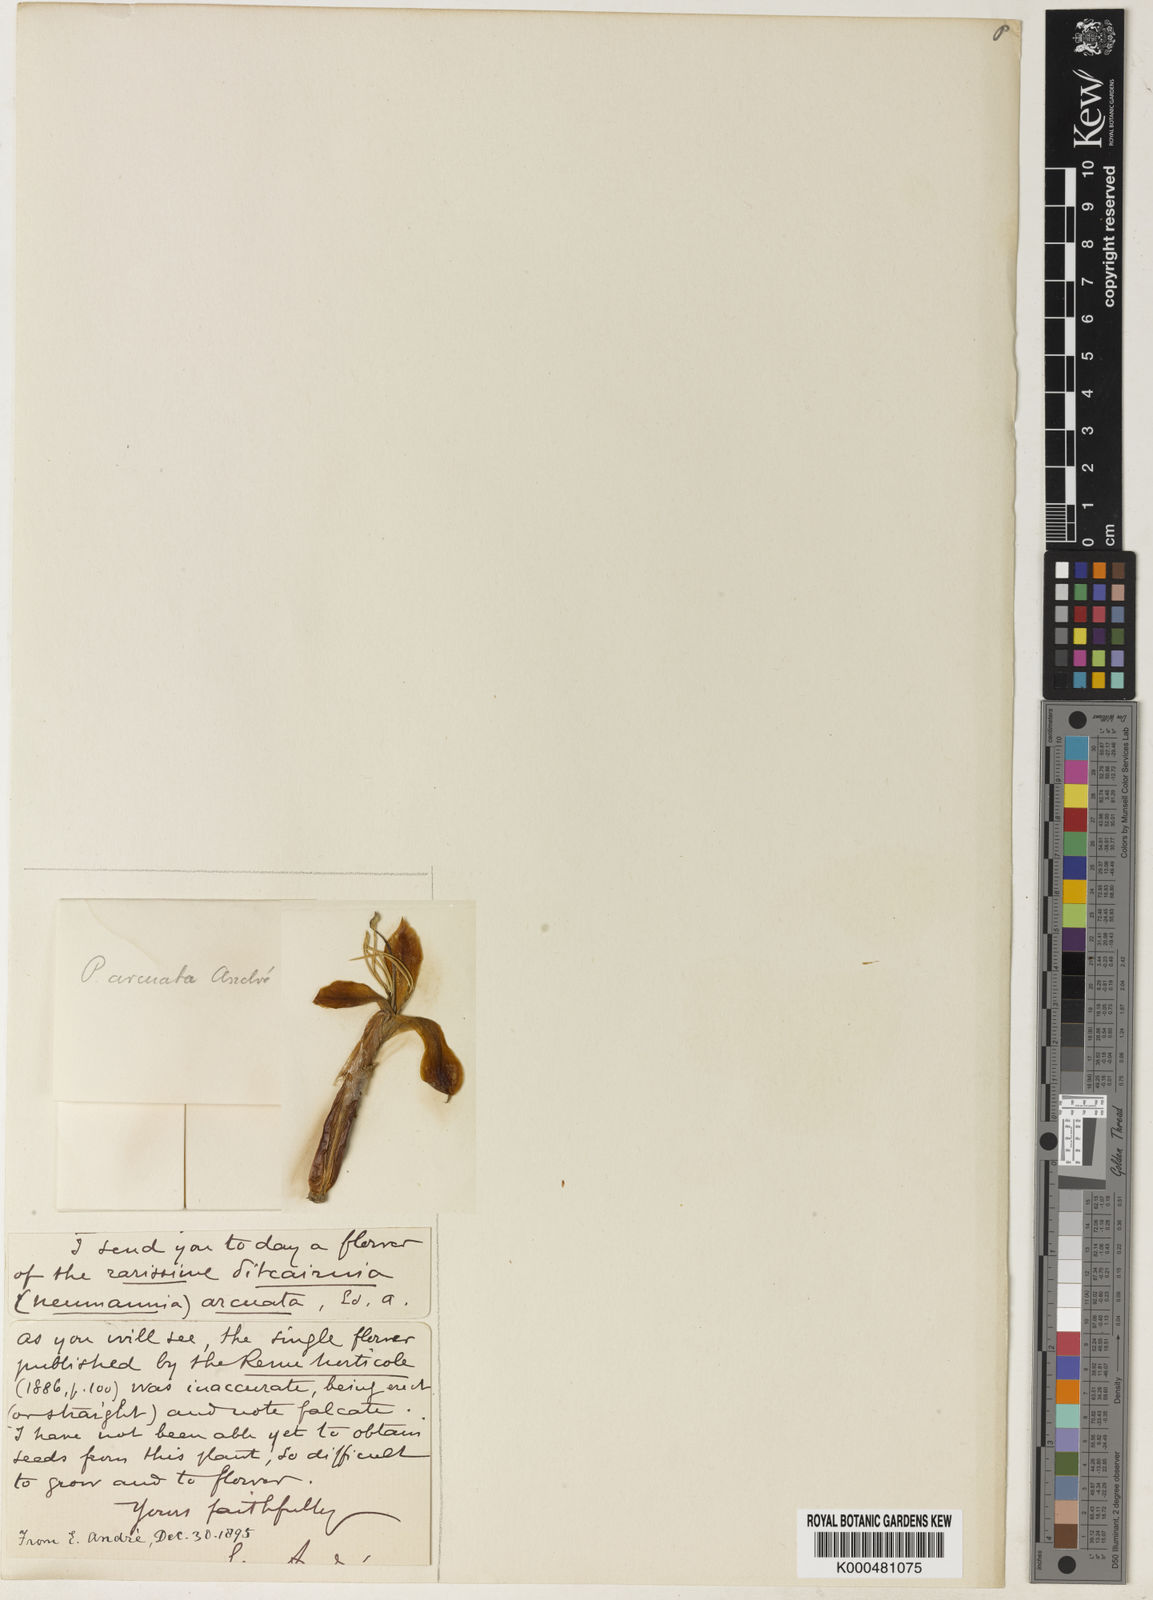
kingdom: Plantae
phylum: Tracheophyta
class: Liliopsida
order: Poales
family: Bromeliaceae
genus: Pitcairnia
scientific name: Pitcairnia
